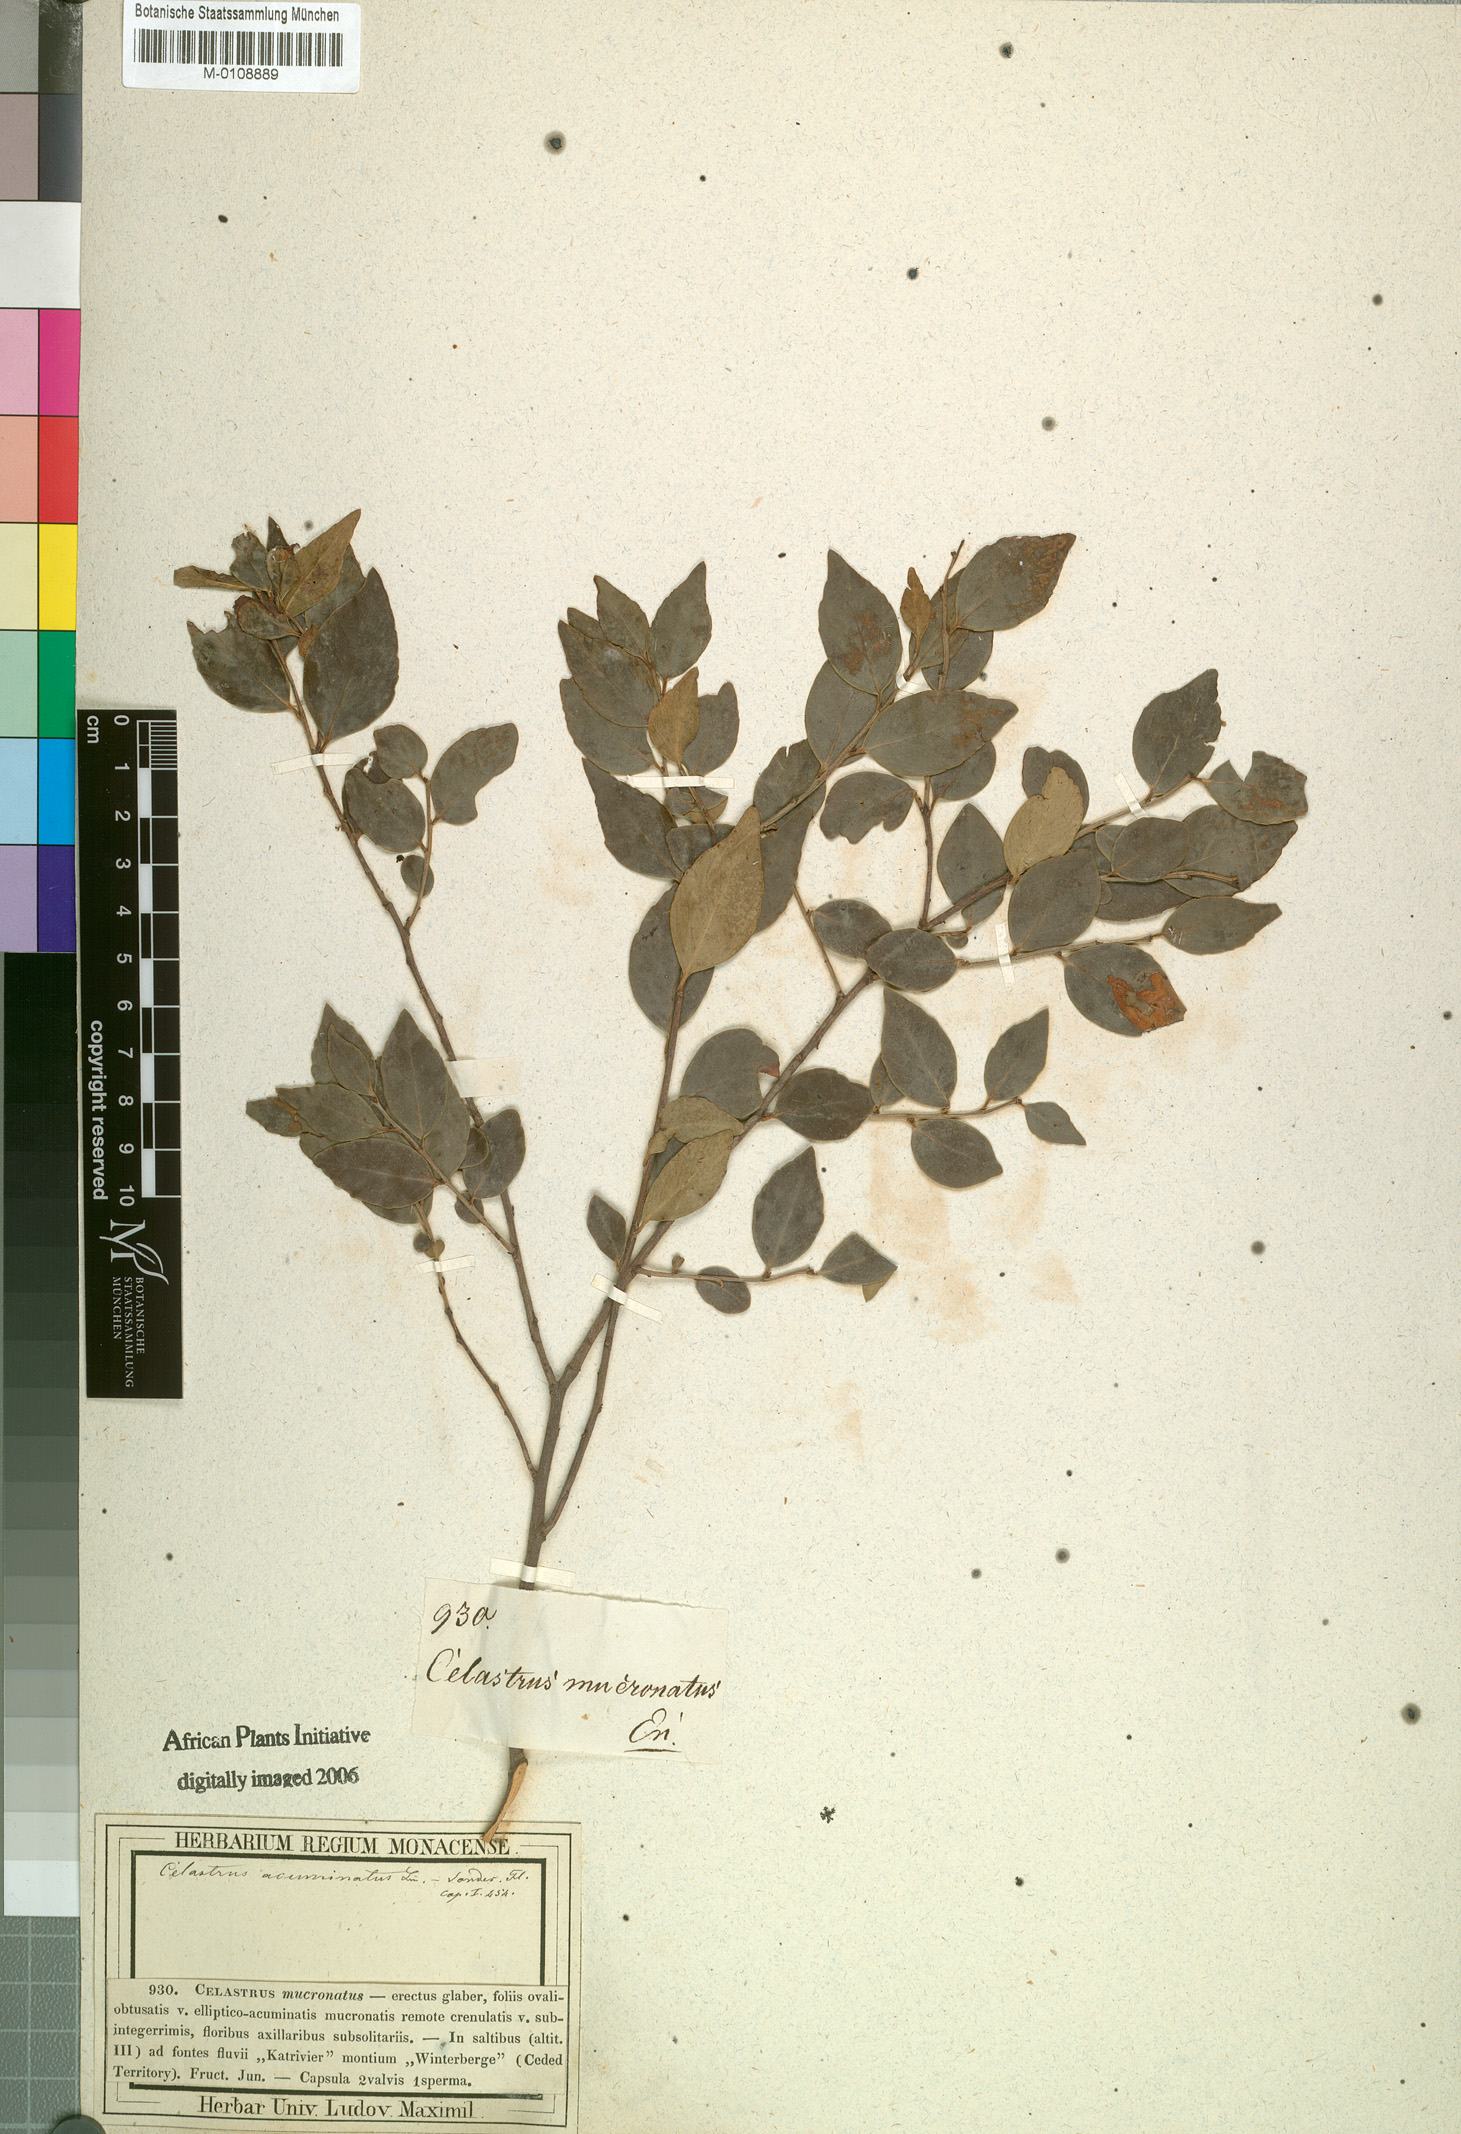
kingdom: Plantae
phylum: Tracheophyta
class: Magnoliopsida
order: Celastrales
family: Celastraceae
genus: Gymnosporia
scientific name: Gymnosporia acuminata
